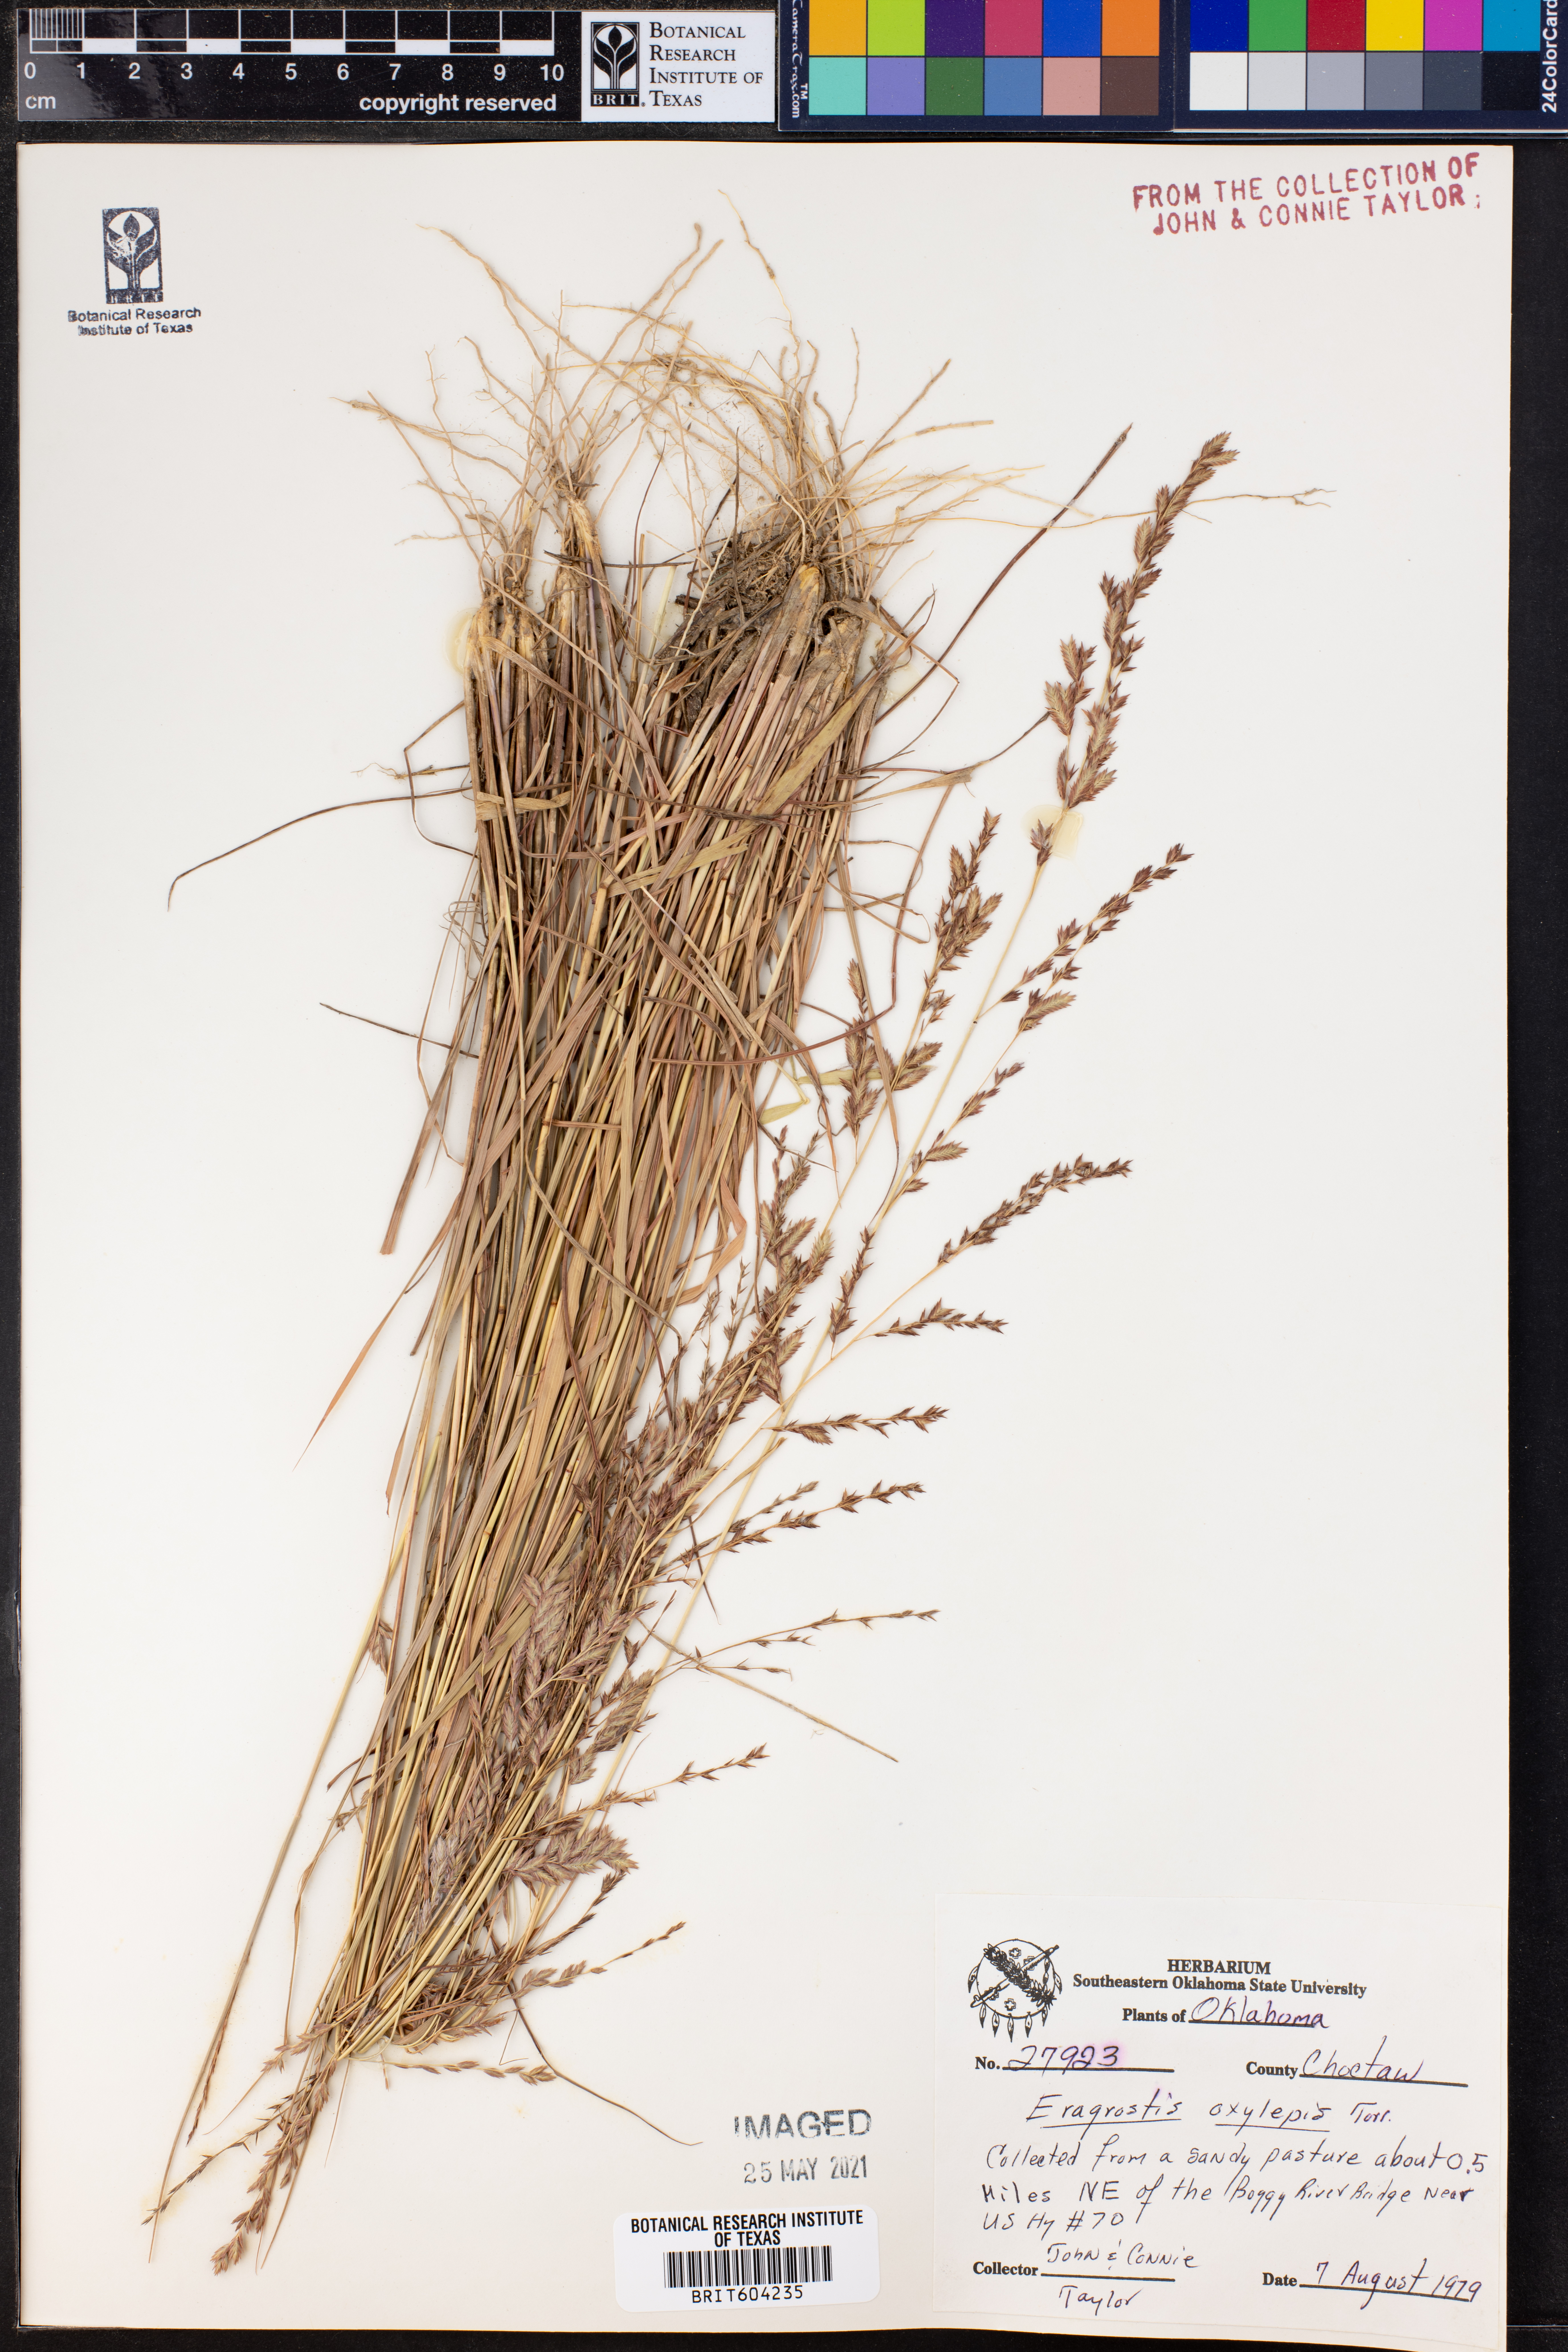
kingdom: Plantae
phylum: Tracheophyta
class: Liliopsida
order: Poales
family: Poaceae
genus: Eragrostis
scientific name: Eragrostis secundiflora
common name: Red love grass
